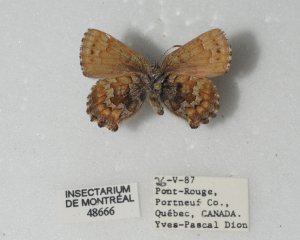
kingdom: Animalia
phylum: Arthropoda
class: Insecta
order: Lepidoptera
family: Lycaenidae
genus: Incisalia
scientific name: Incisalia niphon
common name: Eastern Pine Elfin
